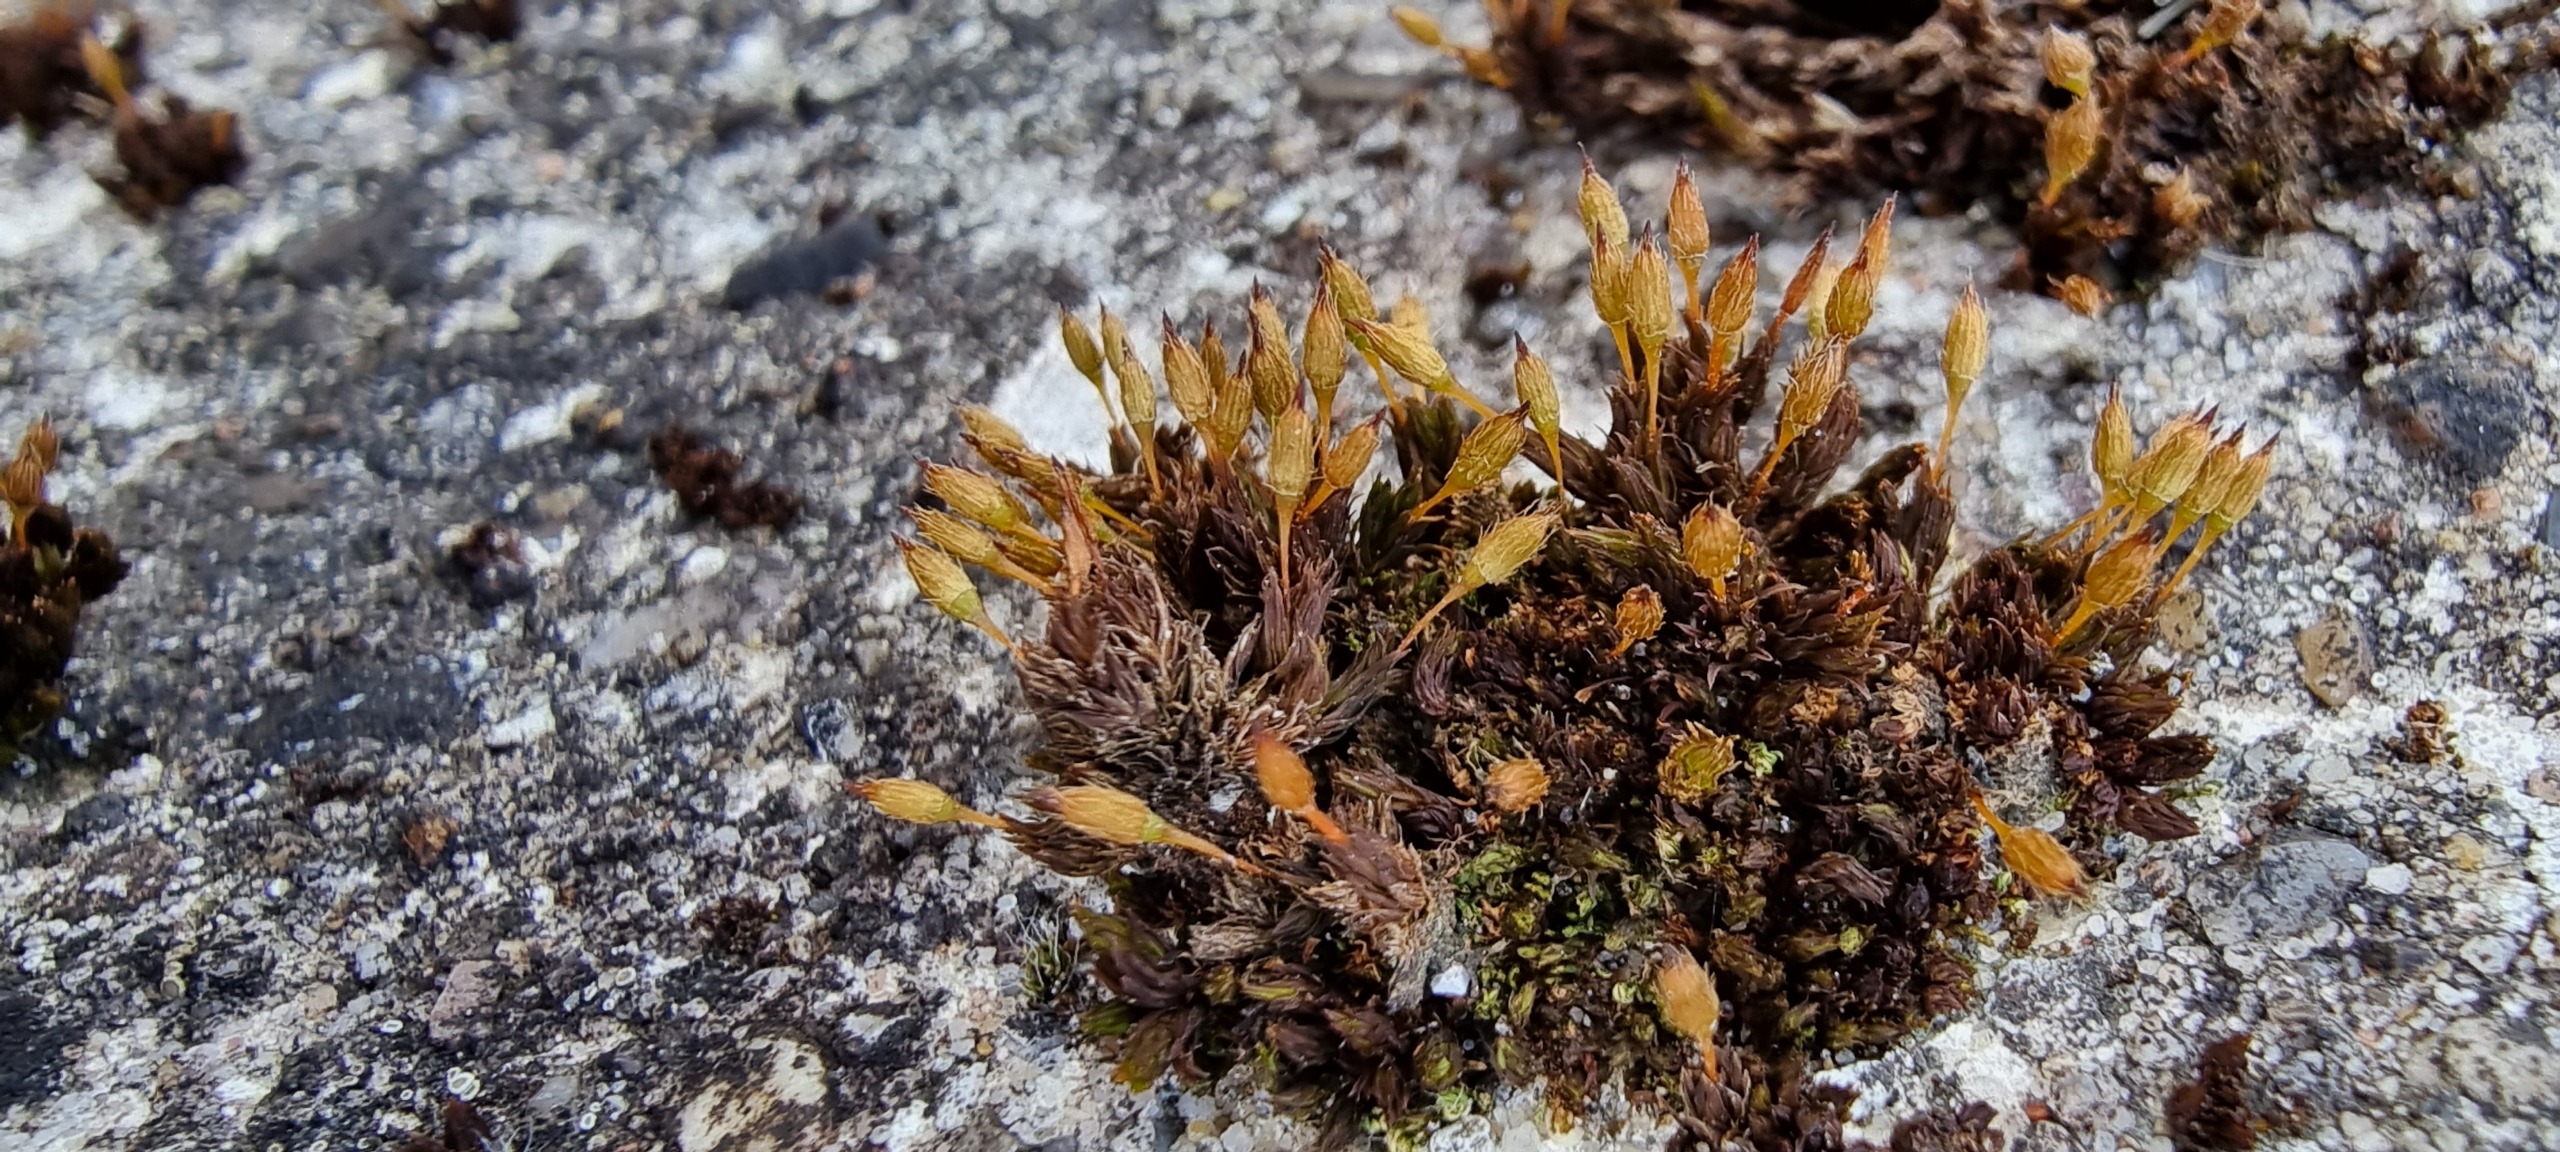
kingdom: Plantae
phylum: Bryophyta
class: Bryopsida
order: Orthotrichales
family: Orthotrichaceae
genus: Orthotrichum
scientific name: Orthotrichum anomalum
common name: Mørk furehætte
